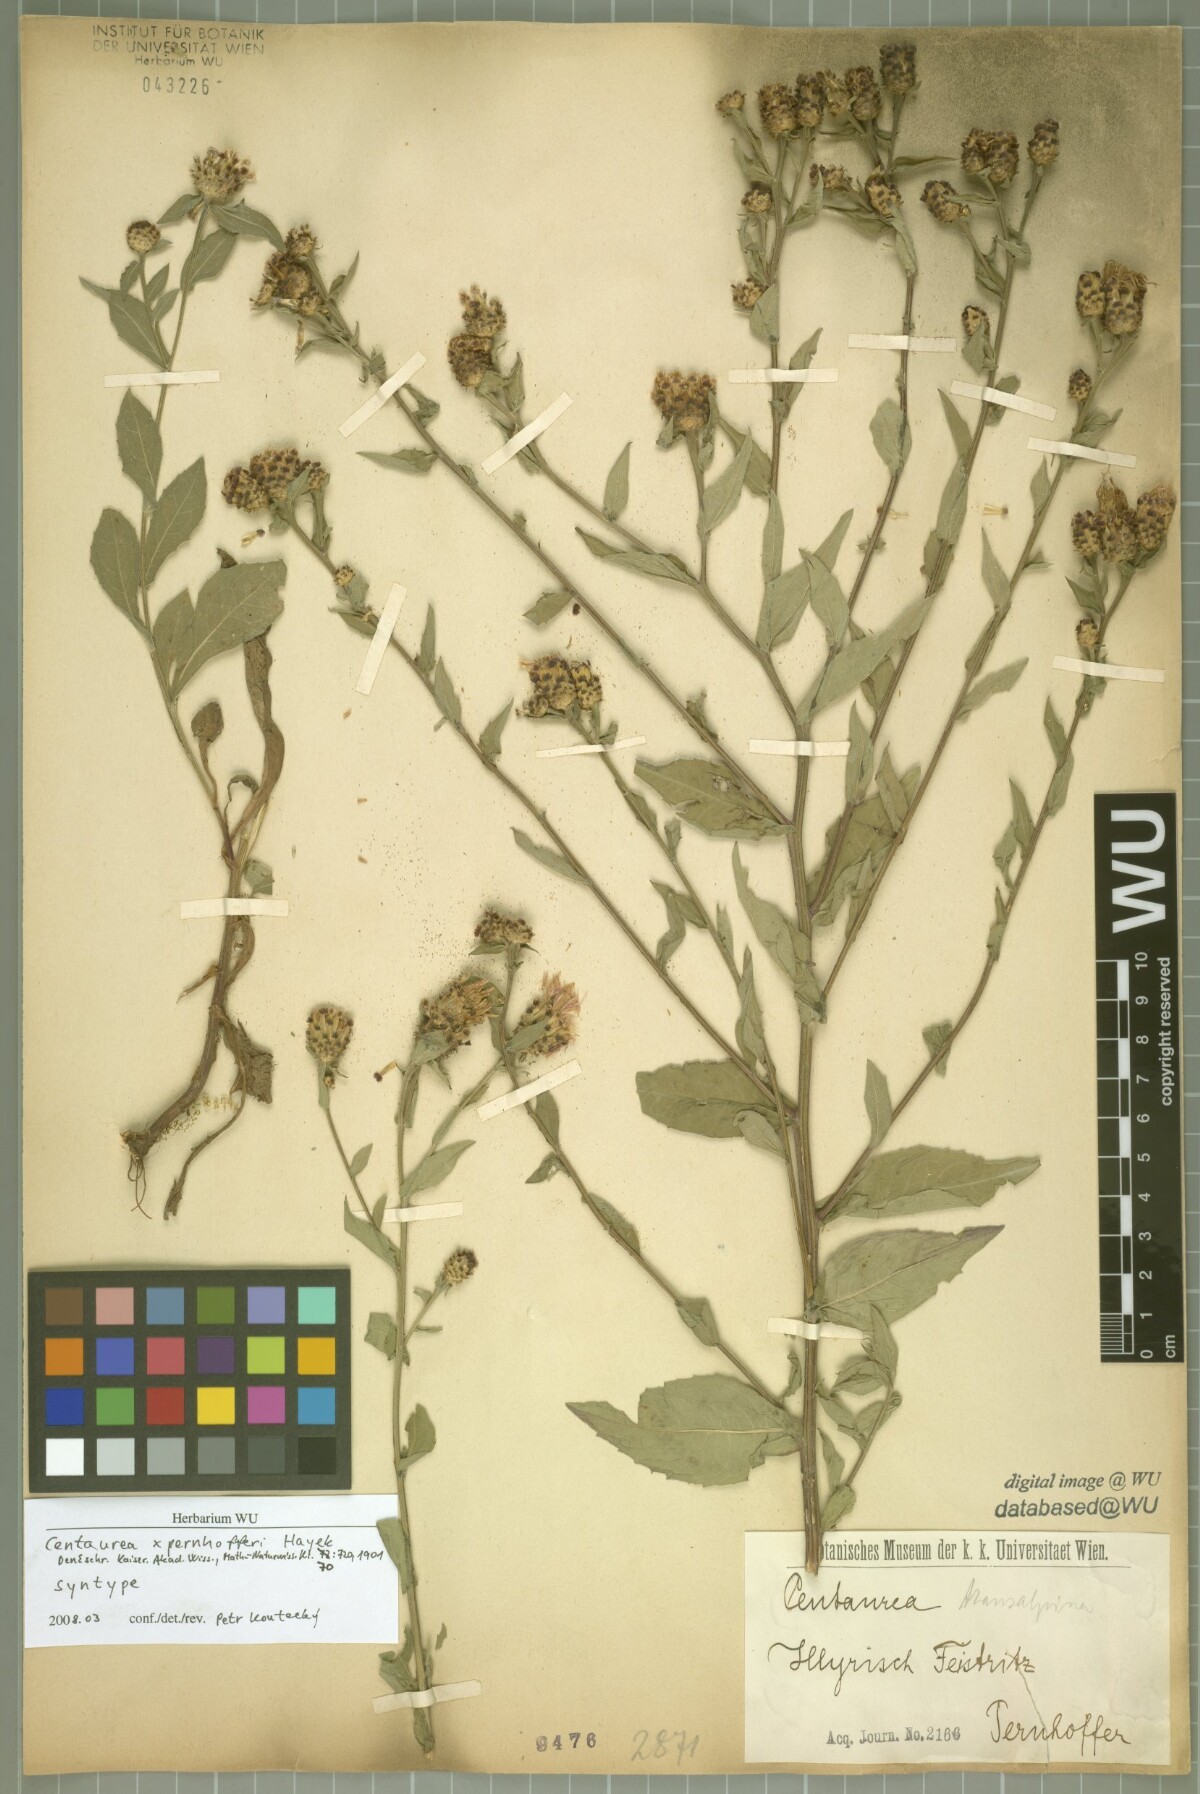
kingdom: Plantae
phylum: Tracheophyta
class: Magnoliopsida
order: Asterales
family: Asteraceae
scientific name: Asteraceae
